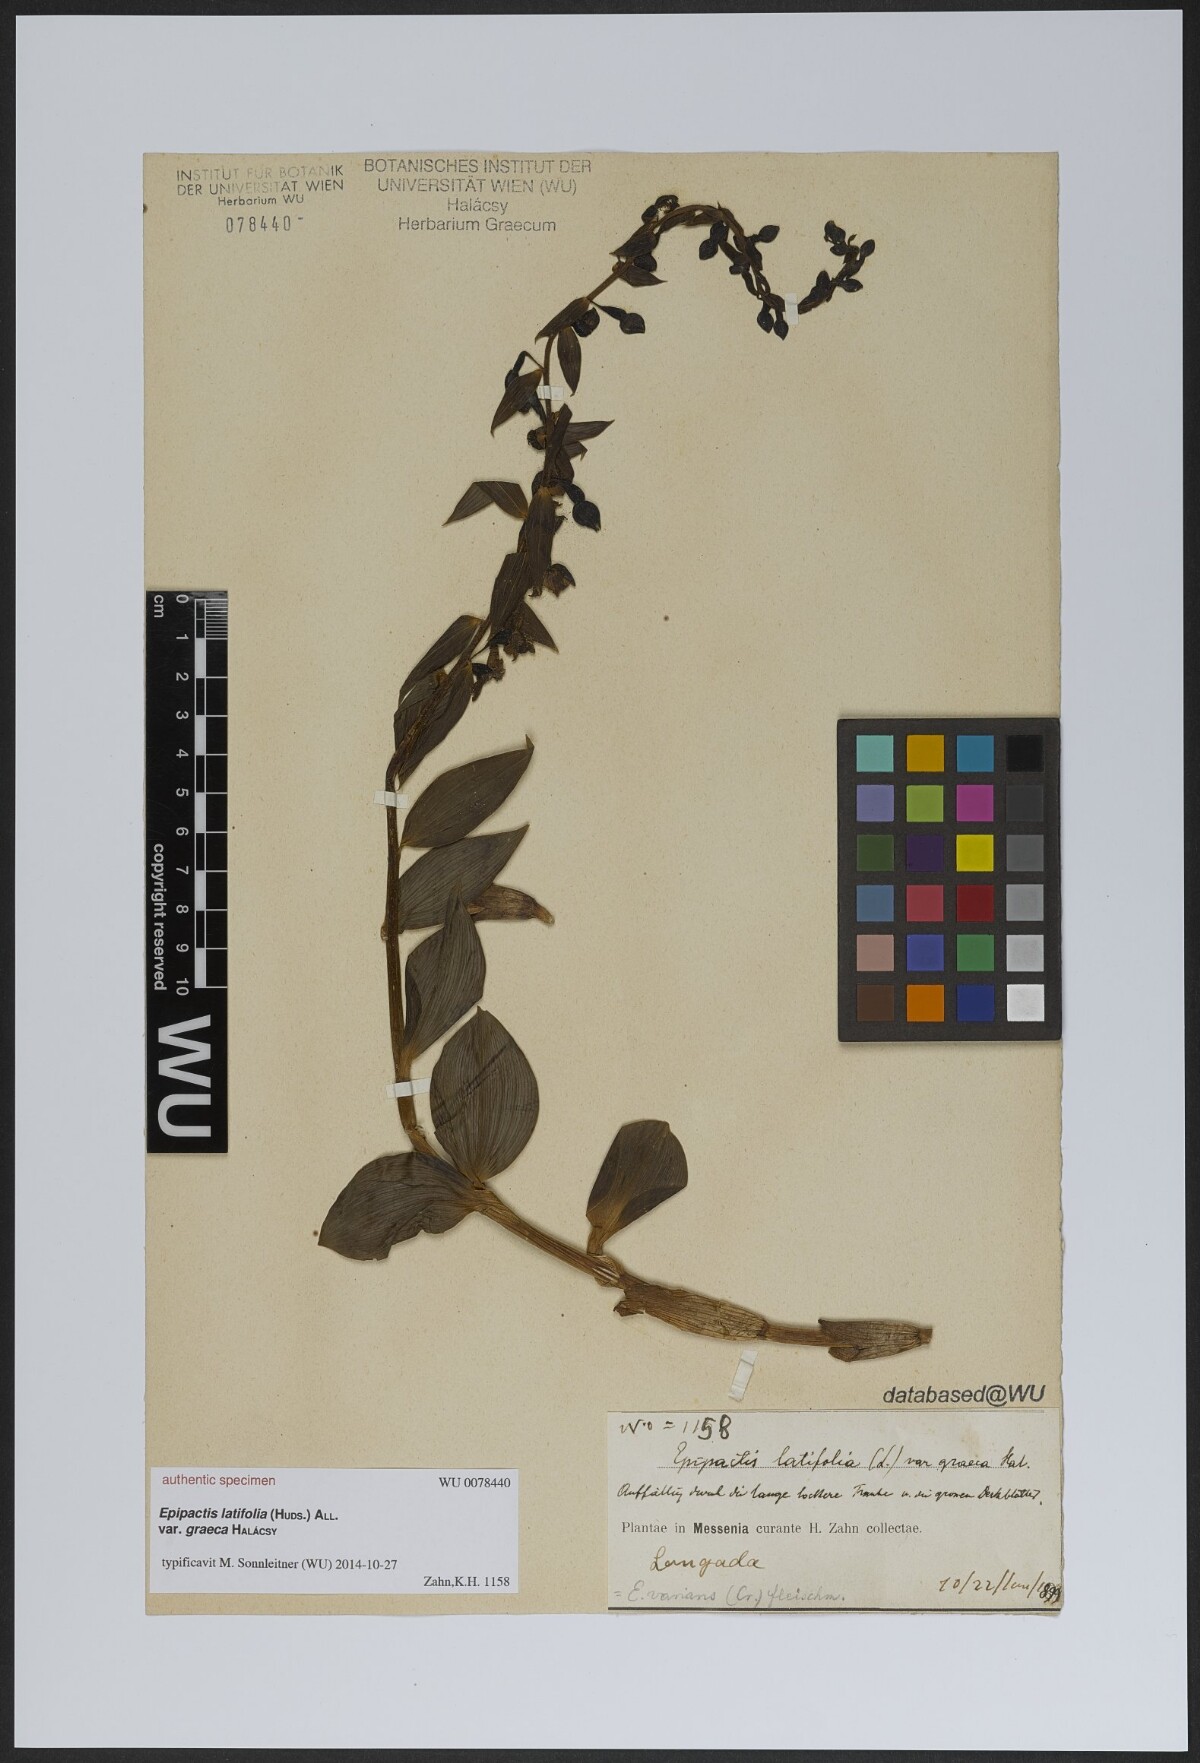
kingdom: Plantae
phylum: Tracheophyta
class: Liliopsida
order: Asparagales
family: Orchidaceae
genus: Epipactis
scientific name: Epipactis
